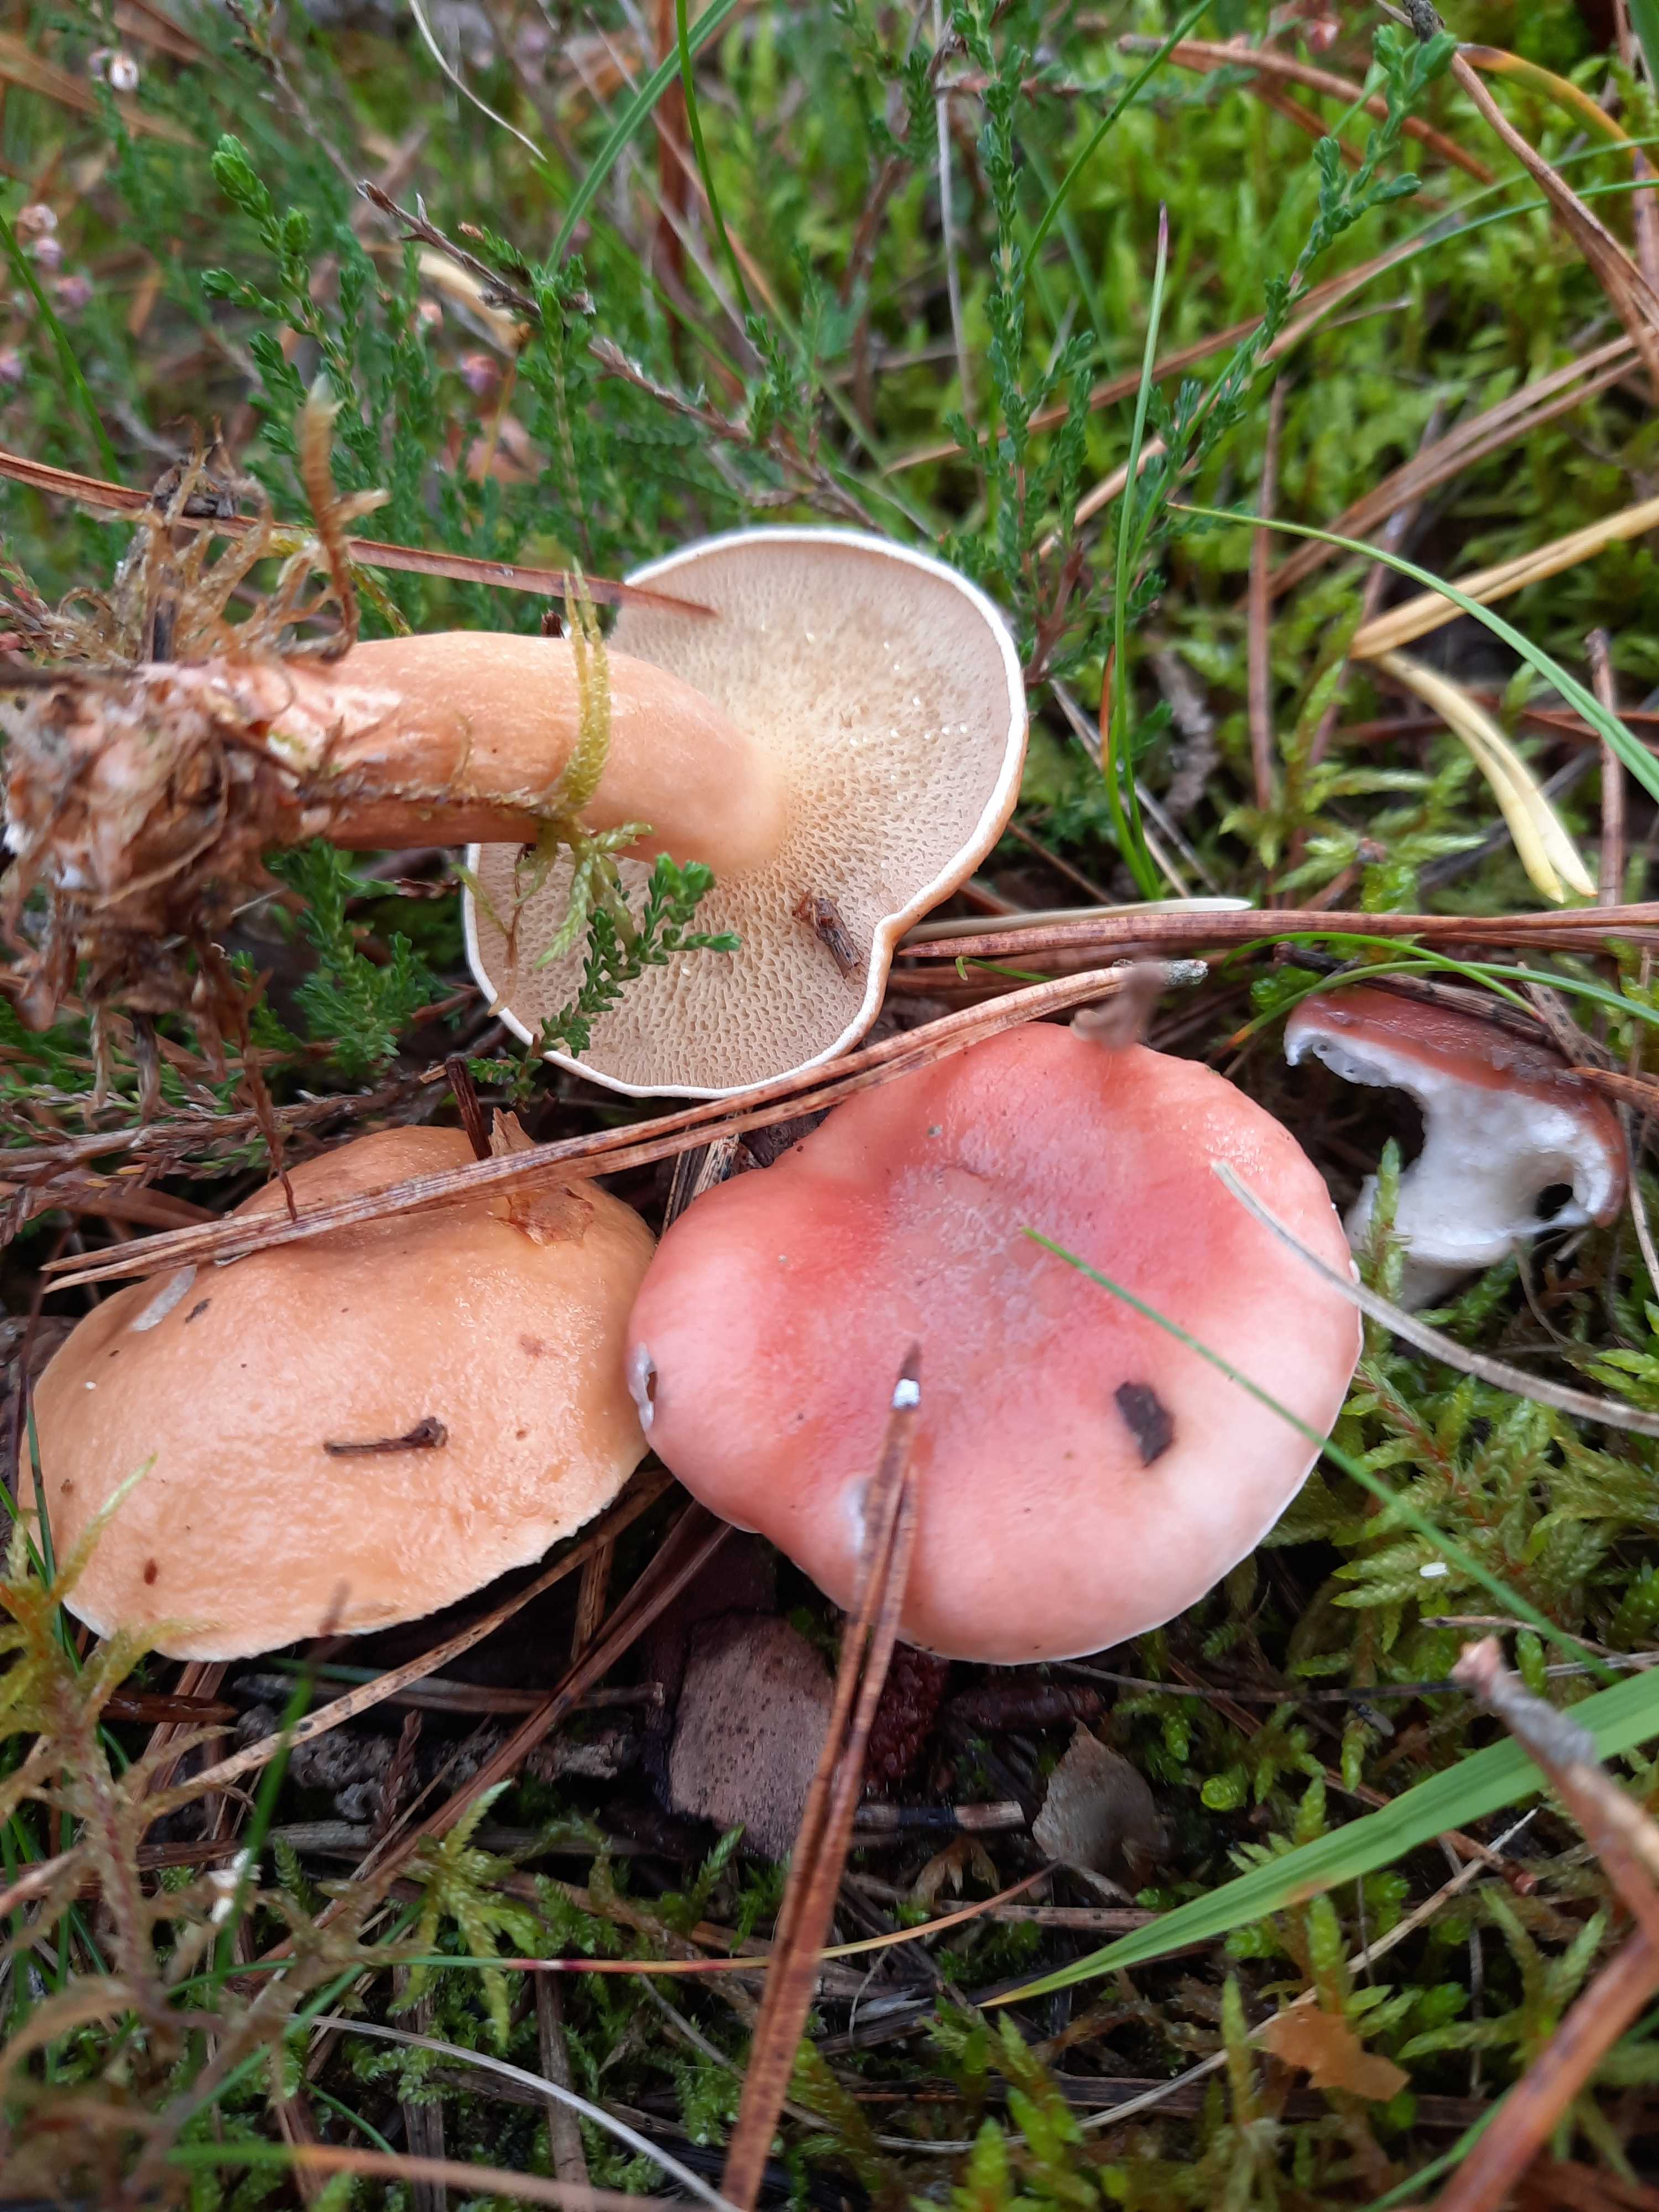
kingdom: Fungi
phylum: Basidiomycota
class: Agaricomycetes
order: Boletales
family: Gomphidiaceae
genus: Gomphidius
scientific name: Gomphidius roseus
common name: rosenrød slimslør
